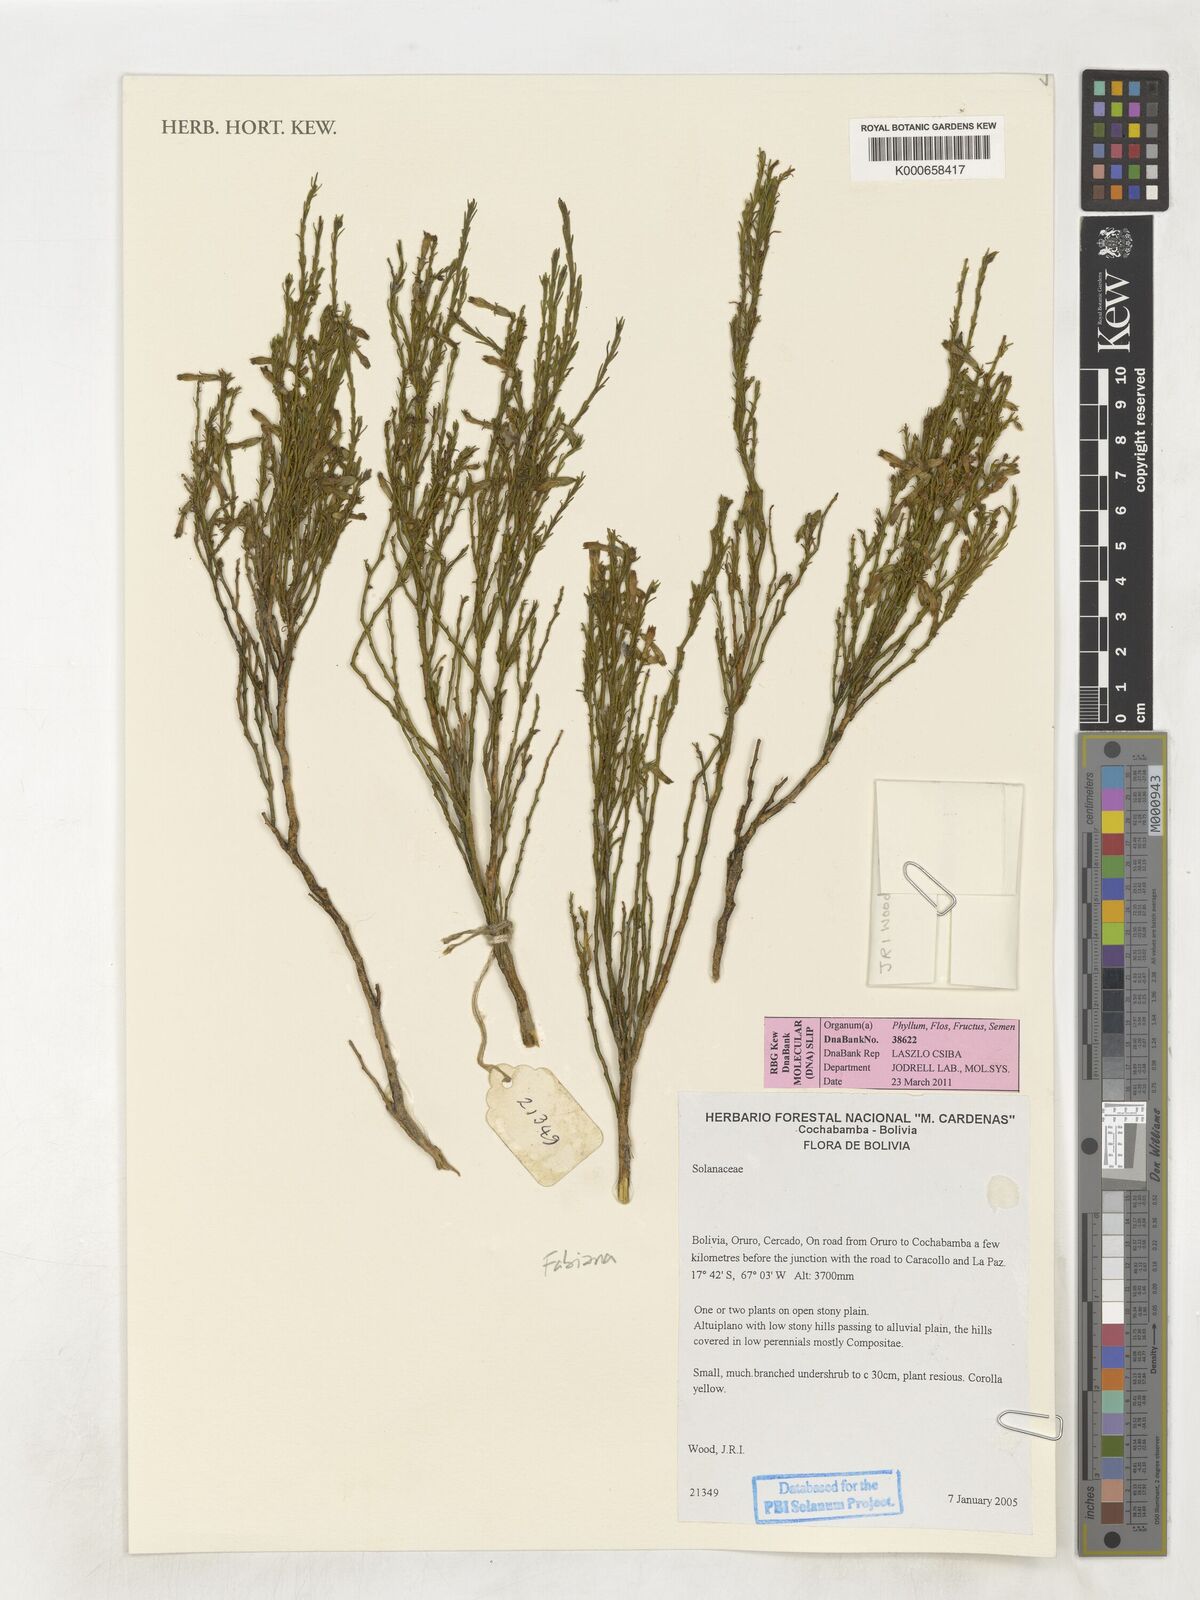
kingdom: Plantae
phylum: Tracheophyta
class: Magnoliopsida
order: Solanales
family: Solanaceae
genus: Fabiana
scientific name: Fabiana
